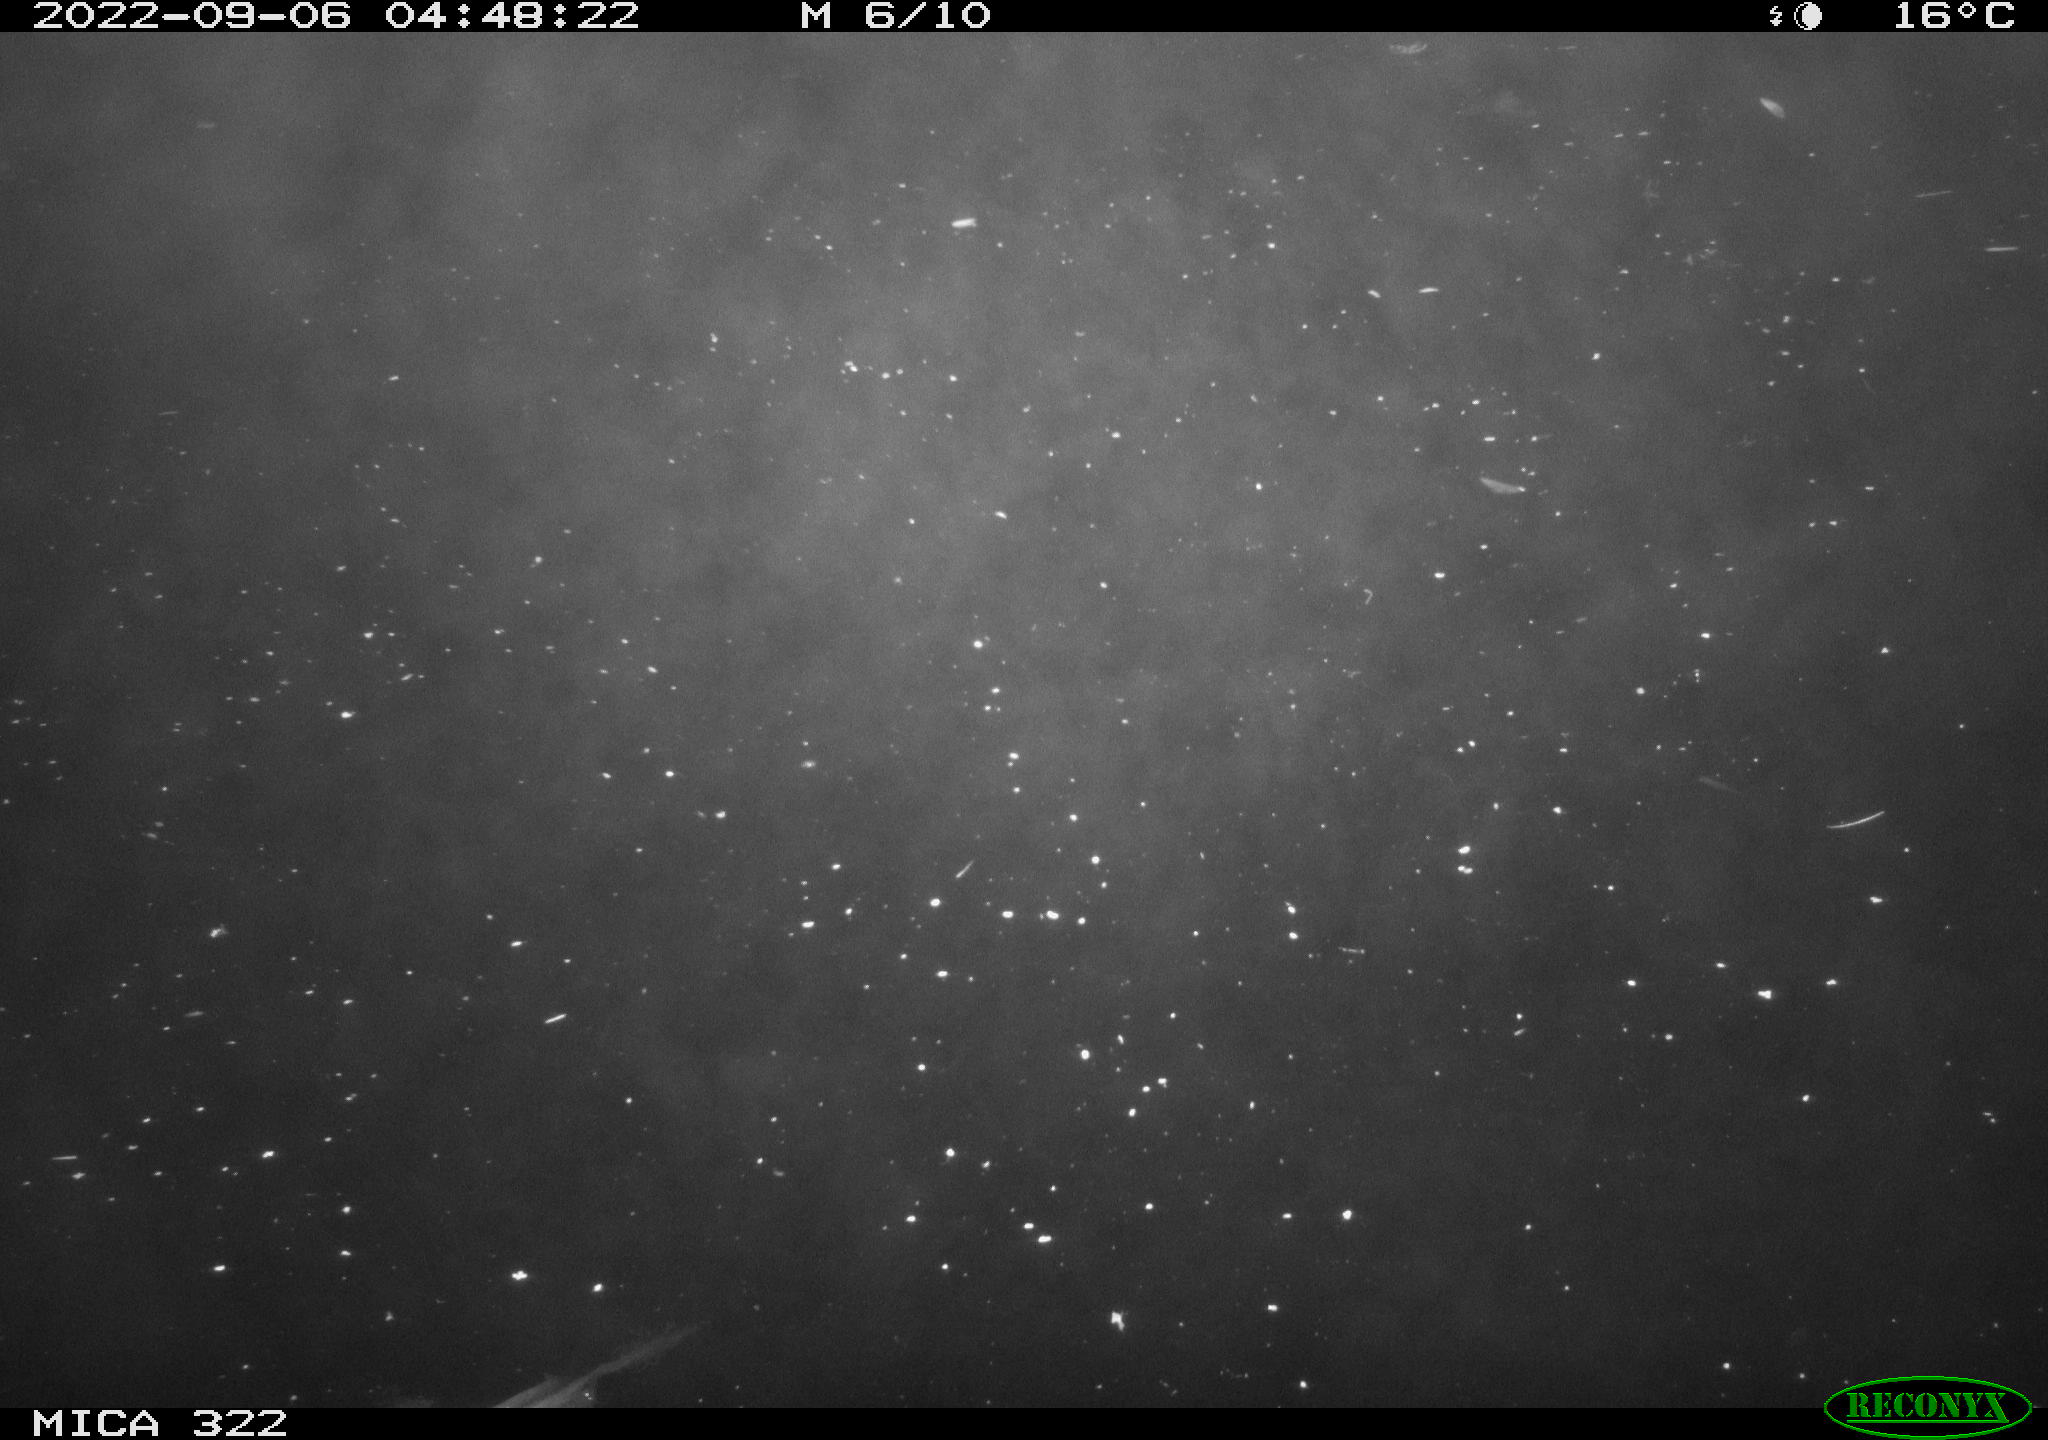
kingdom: Animalia
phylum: Chordata
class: Aves
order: Anseriformes
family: Anatidae
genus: Anas
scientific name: Anas platyrhynchos
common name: Mallard
